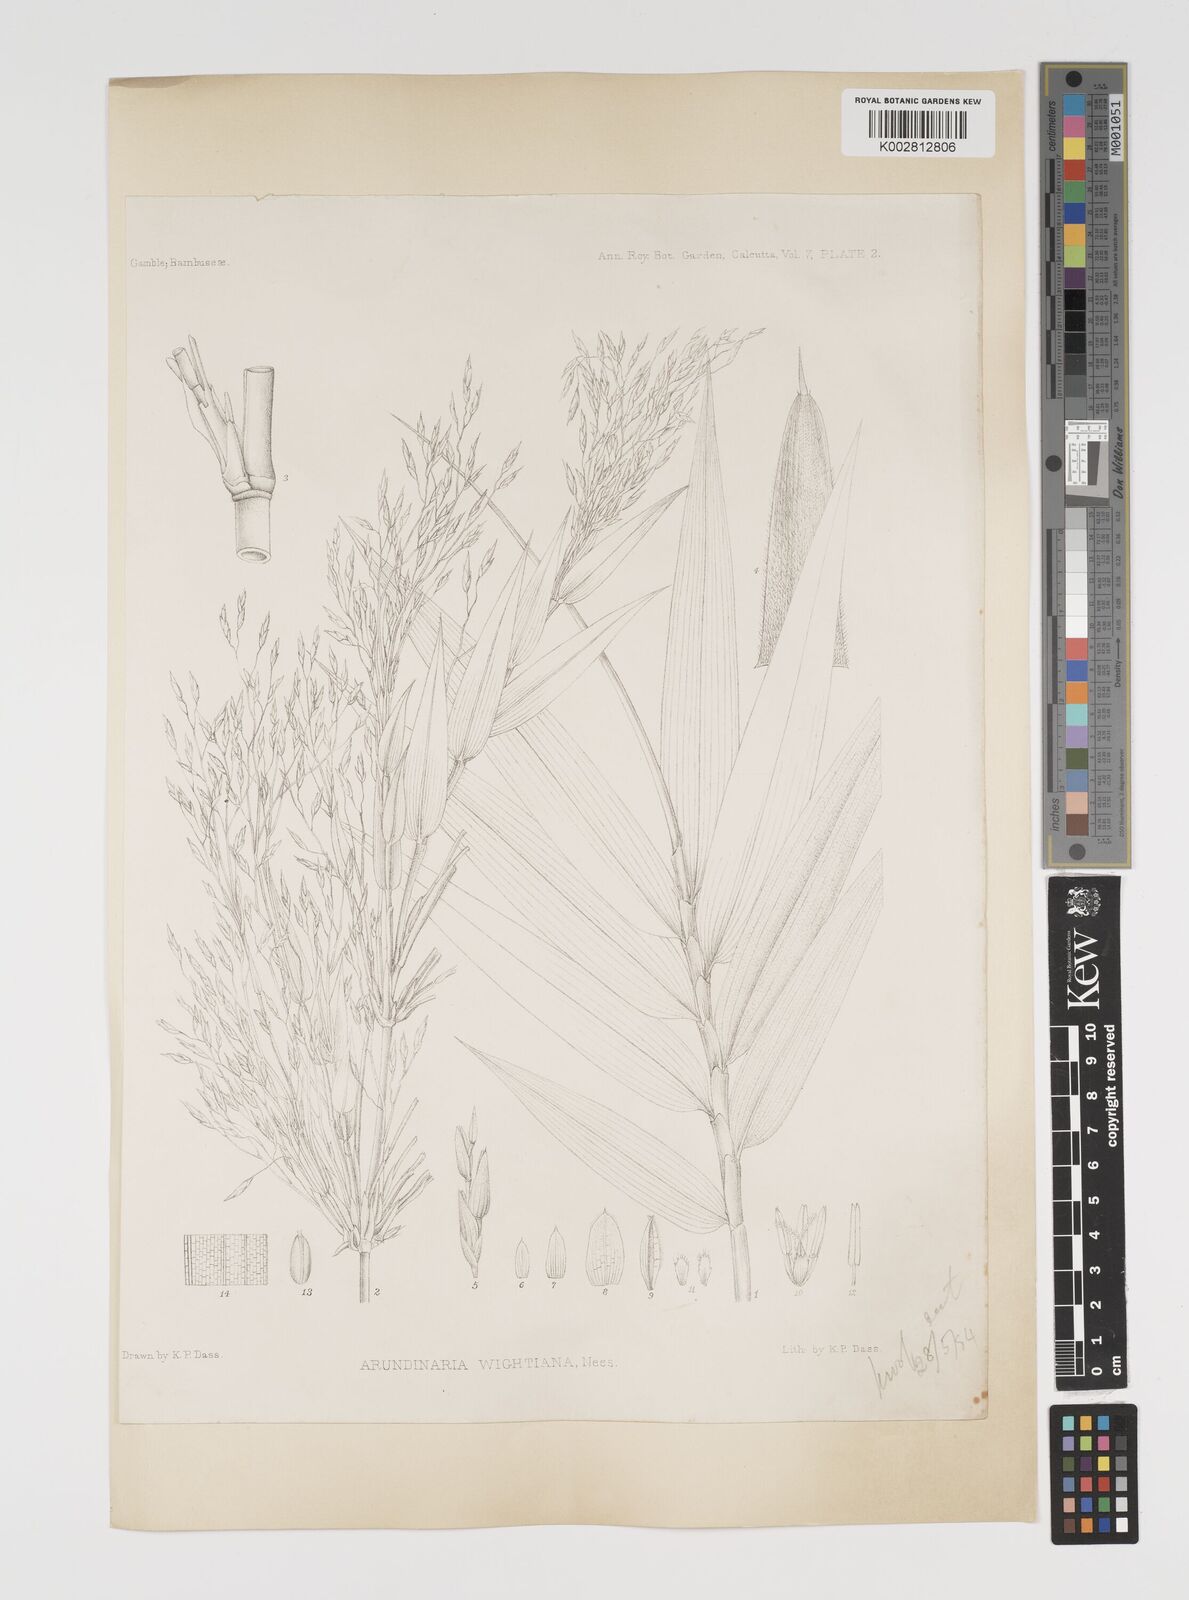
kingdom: Plantae
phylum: Tracheophyta
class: Liliopsida
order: Poales
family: Poaceae
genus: Kuruna
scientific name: Kuruna wightiana
